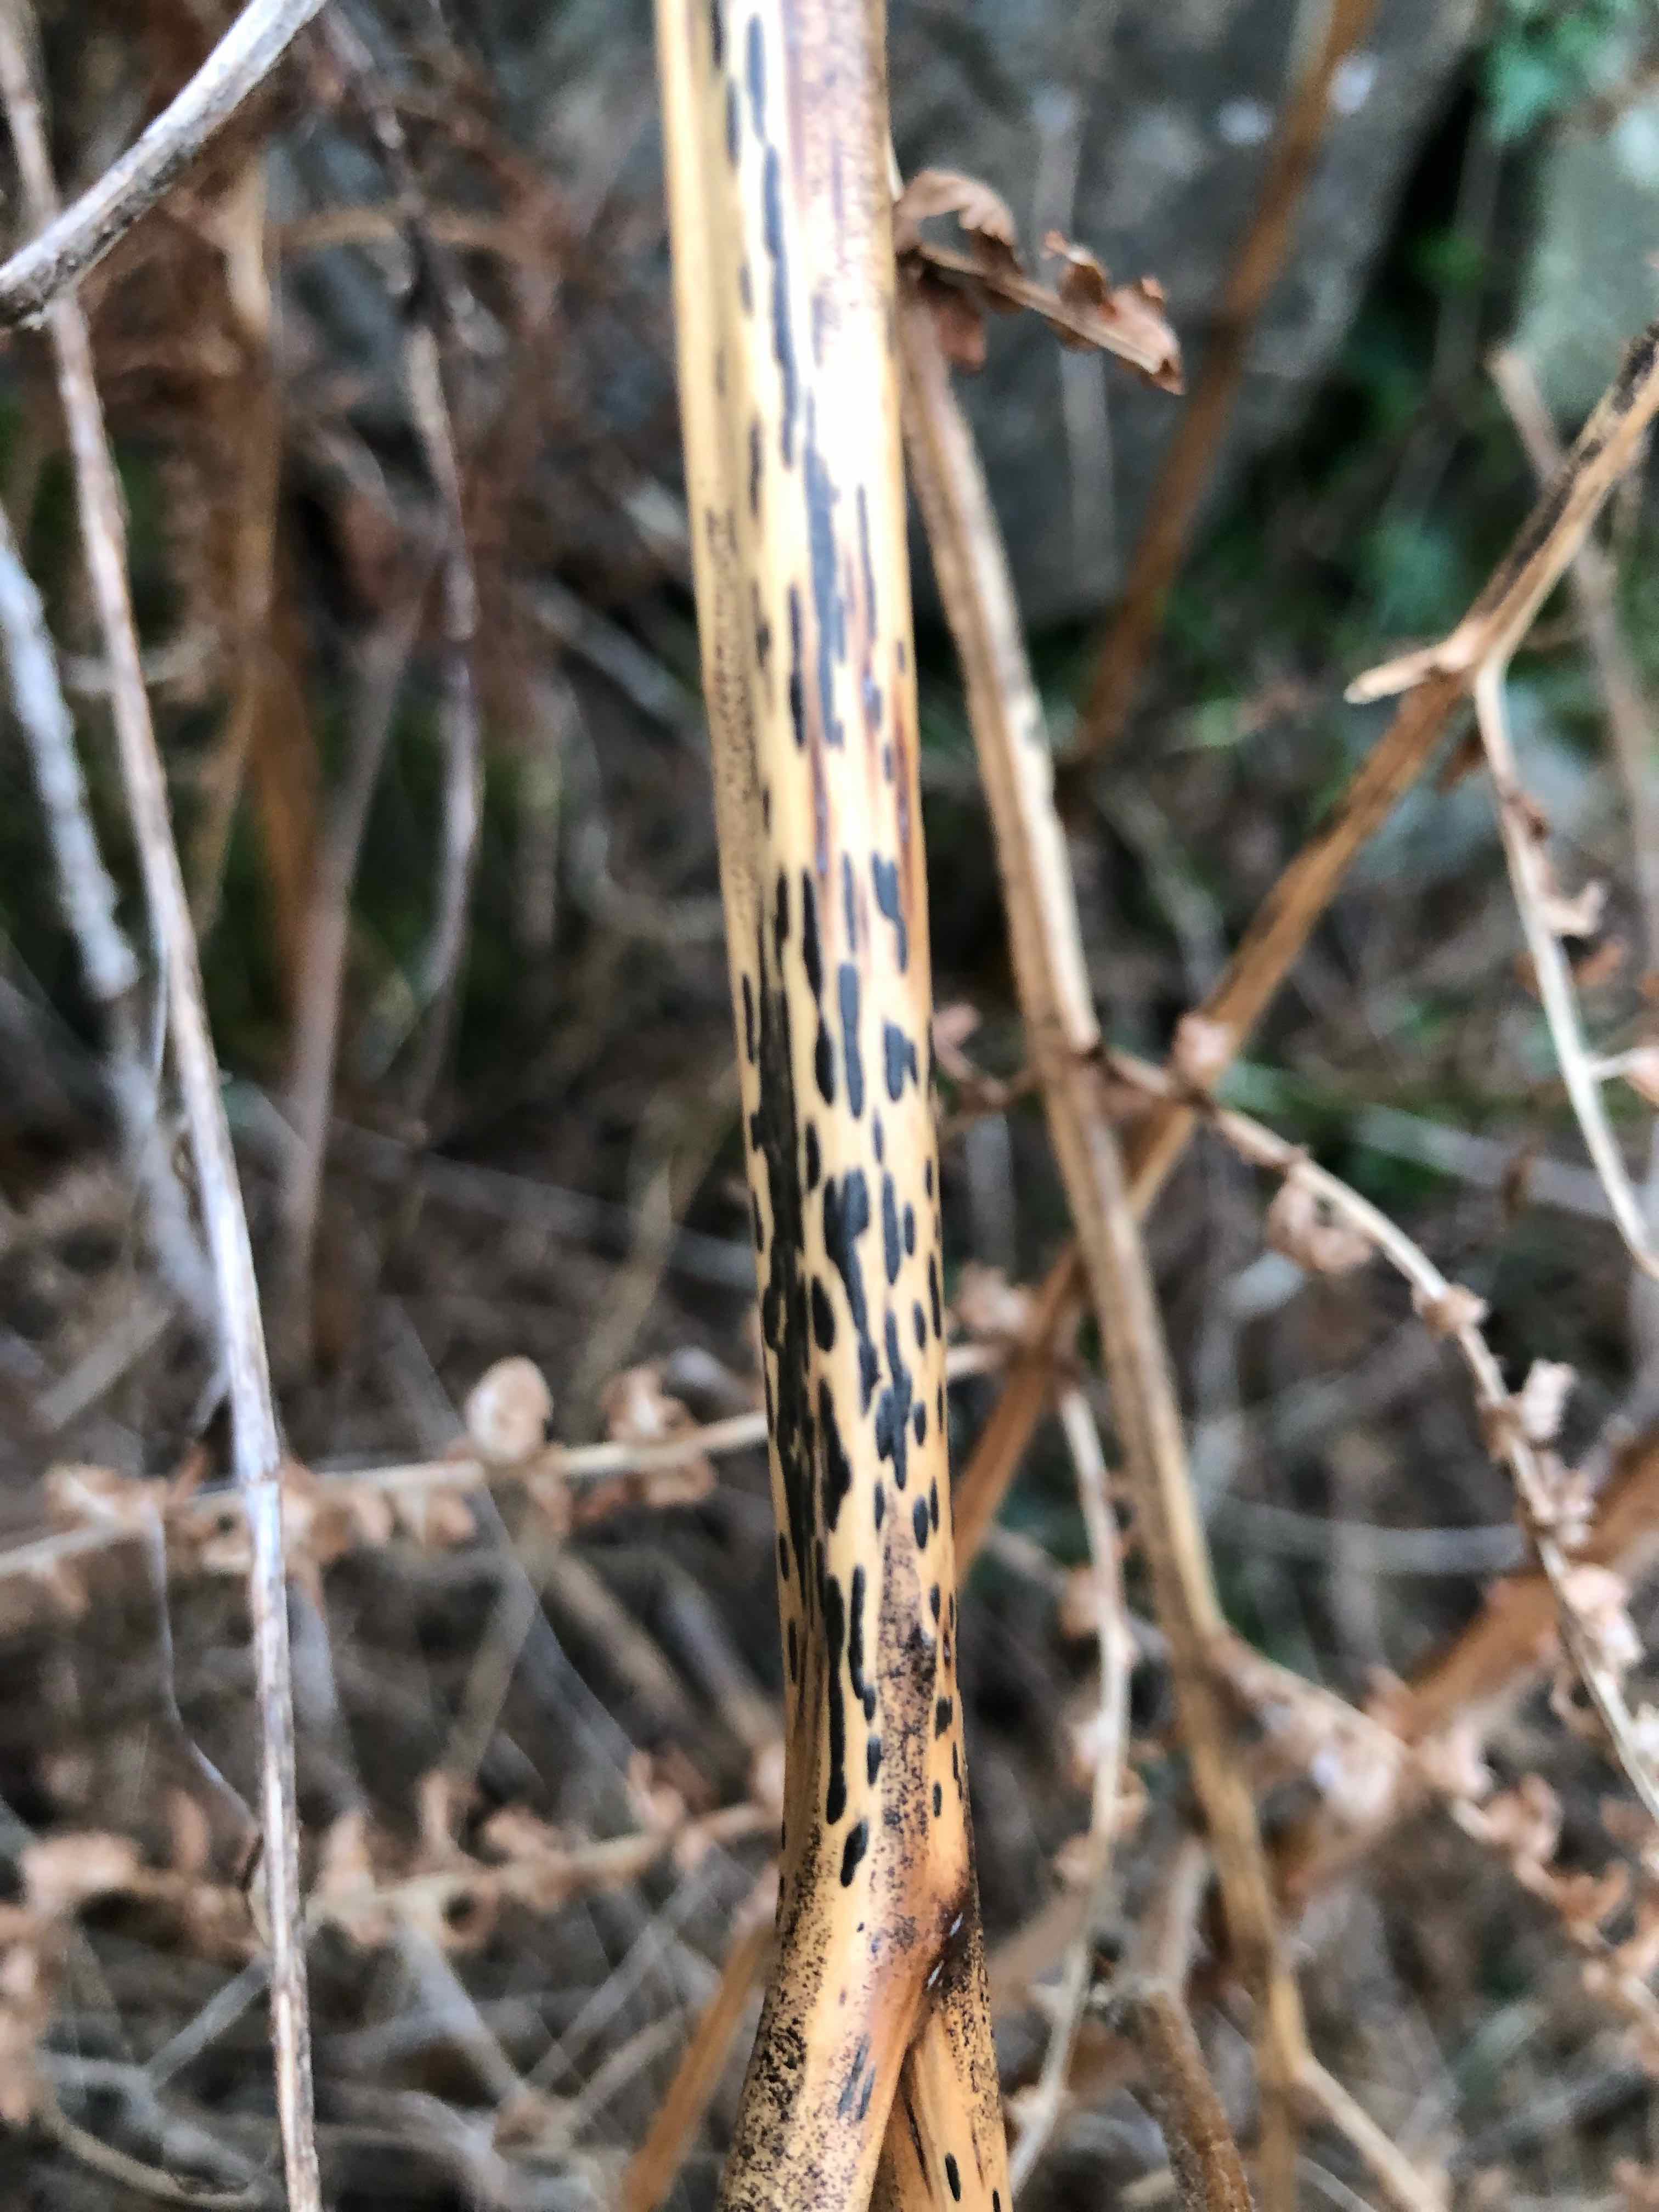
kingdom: Fungi
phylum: Ascomycota
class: Dothideomycetes
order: Pleosporales
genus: Rhopographus
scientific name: Rhopographus filicinus
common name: Bracken map
